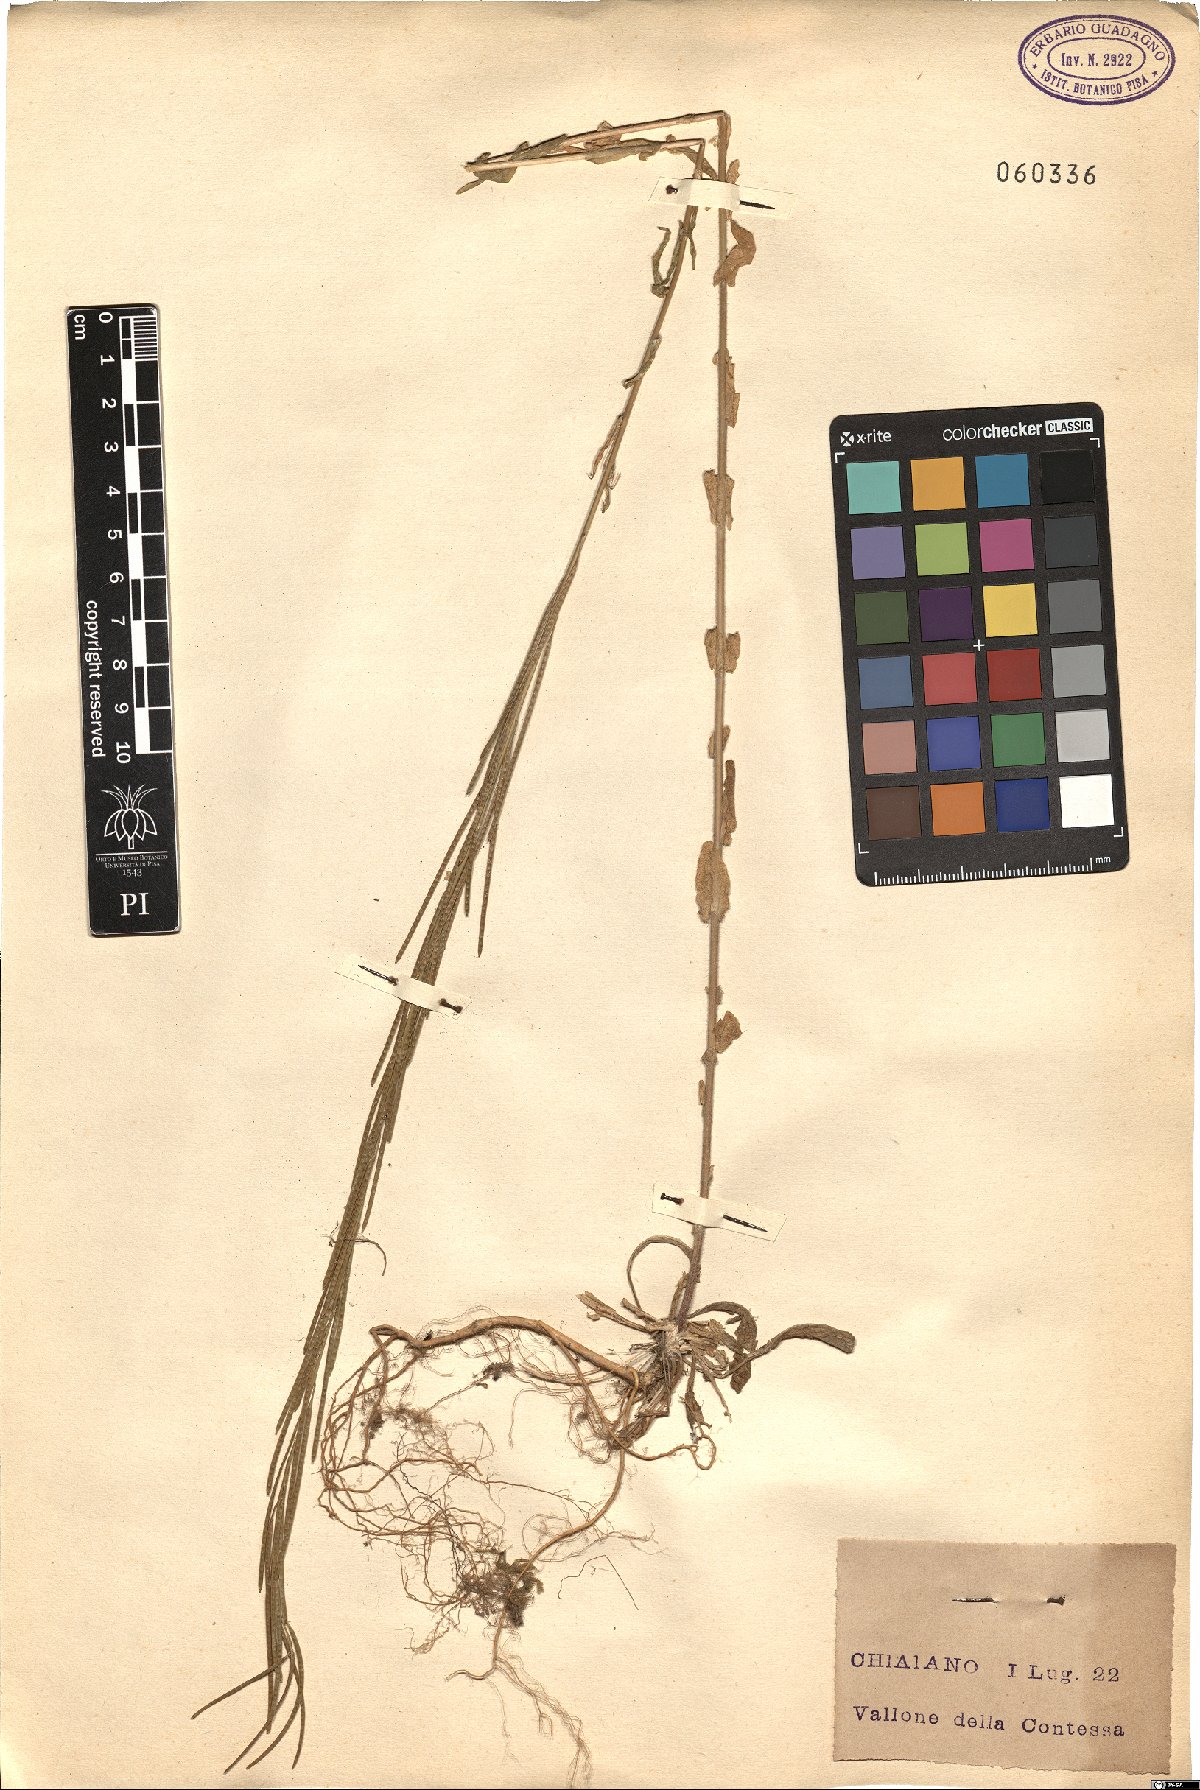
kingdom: Plantae
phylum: Tracheophyta
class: Magnoliopsida
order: Brassicales
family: Brassicaceae
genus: Arabis
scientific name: Arabis sagittata
